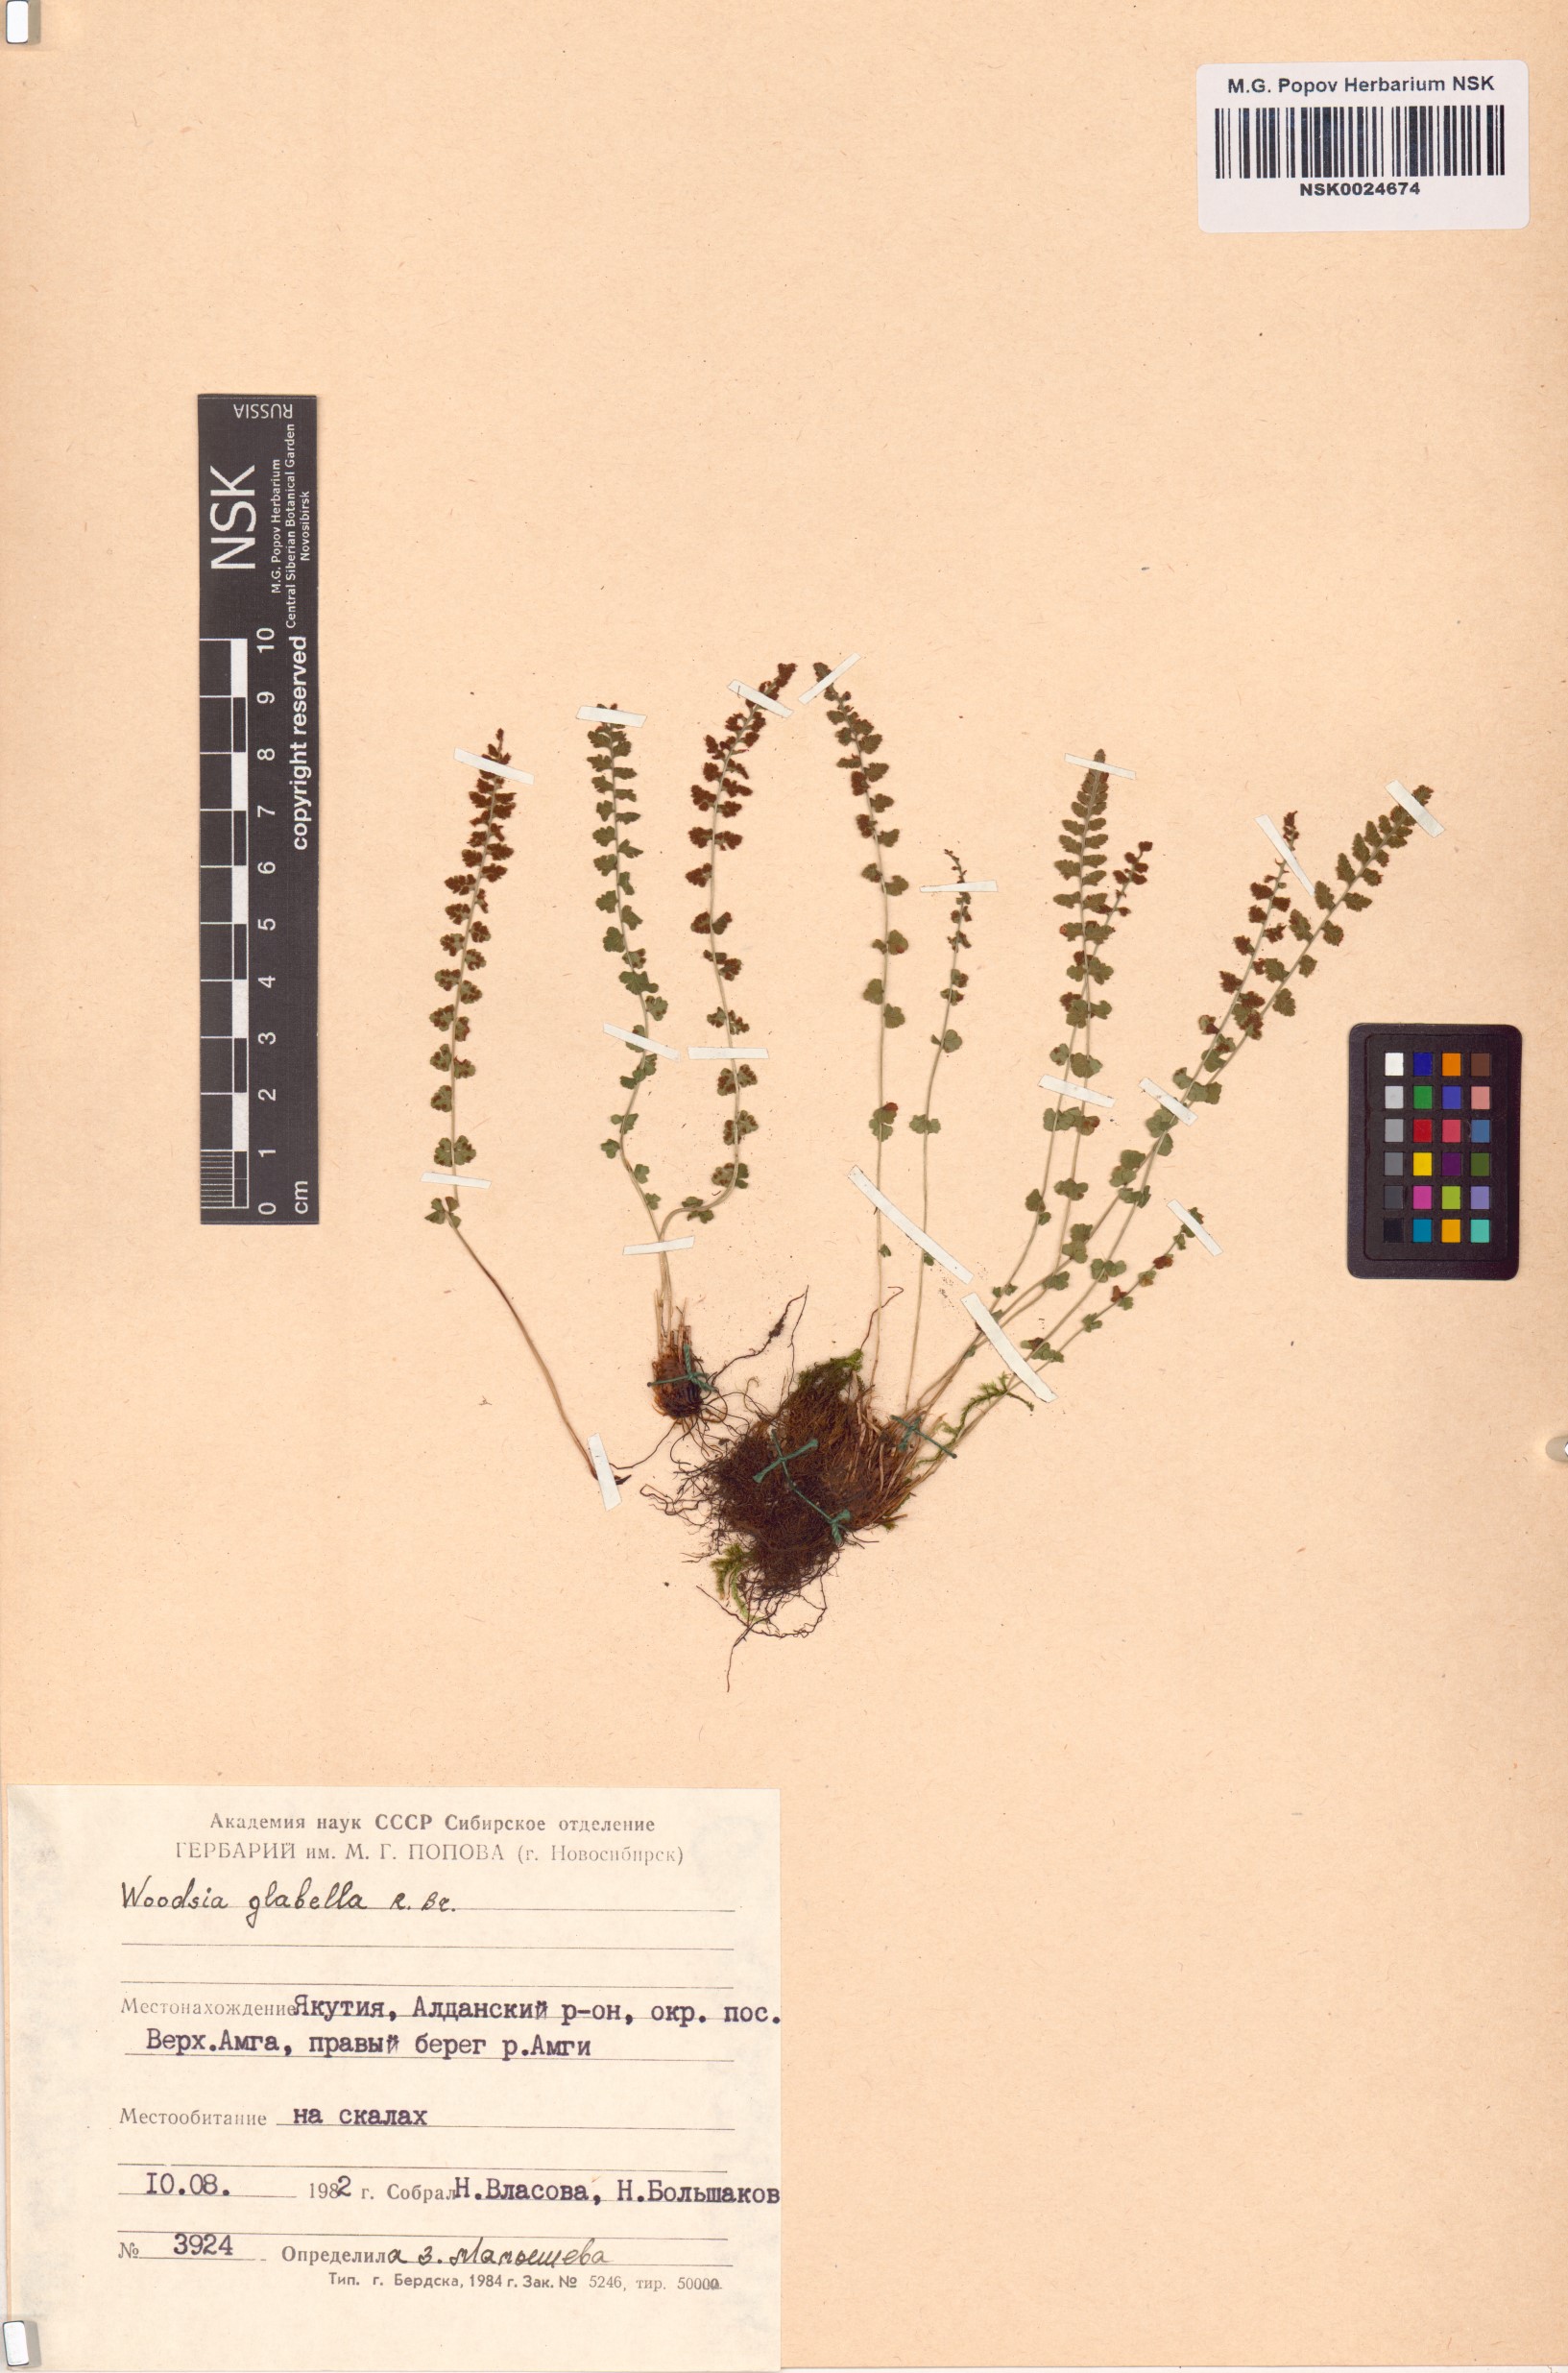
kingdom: Plantae
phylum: Tracheophyta
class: Polypodiopsida
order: Polypodiales
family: Woodsiaceae
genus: Woodsia
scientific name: Woodsia glabella
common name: Smooth woodsia
